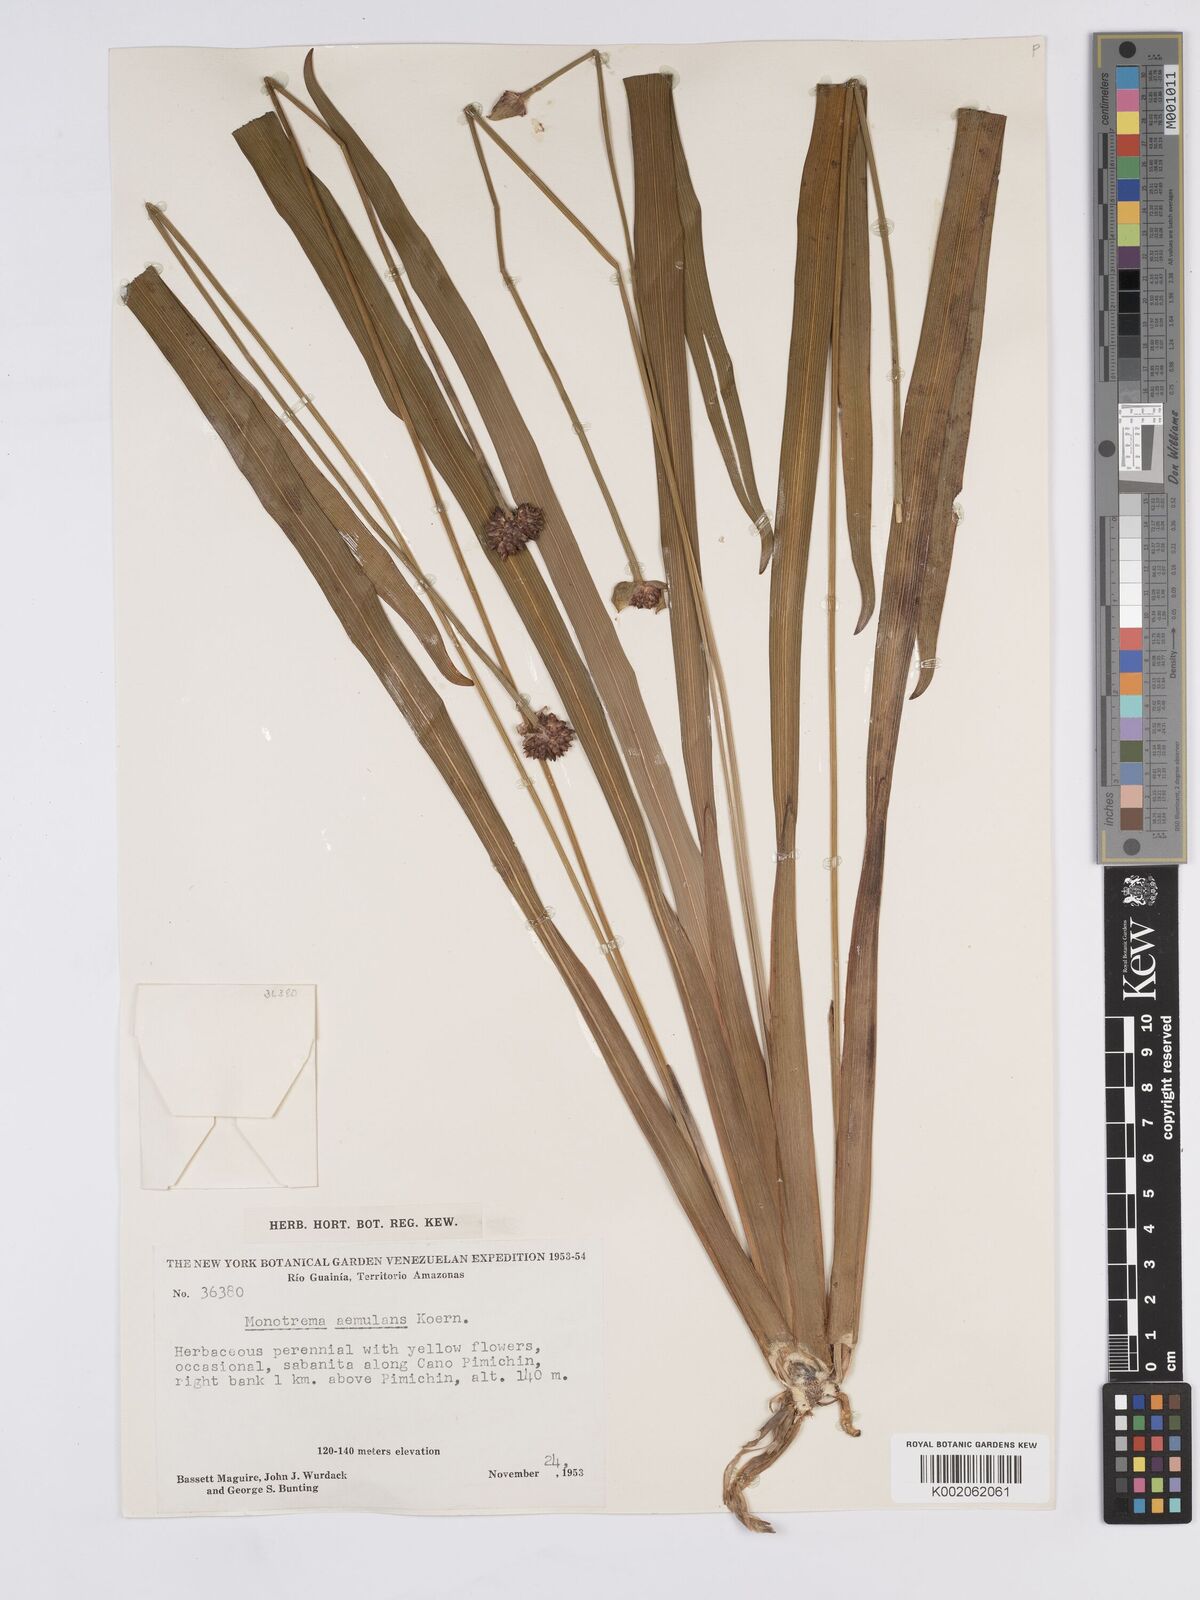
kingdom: Plantae
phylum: Tracheophyta
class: Liliopsida
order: Poales
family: Rapateaceae
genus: Monotrema
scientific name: Monotrema aemulans
